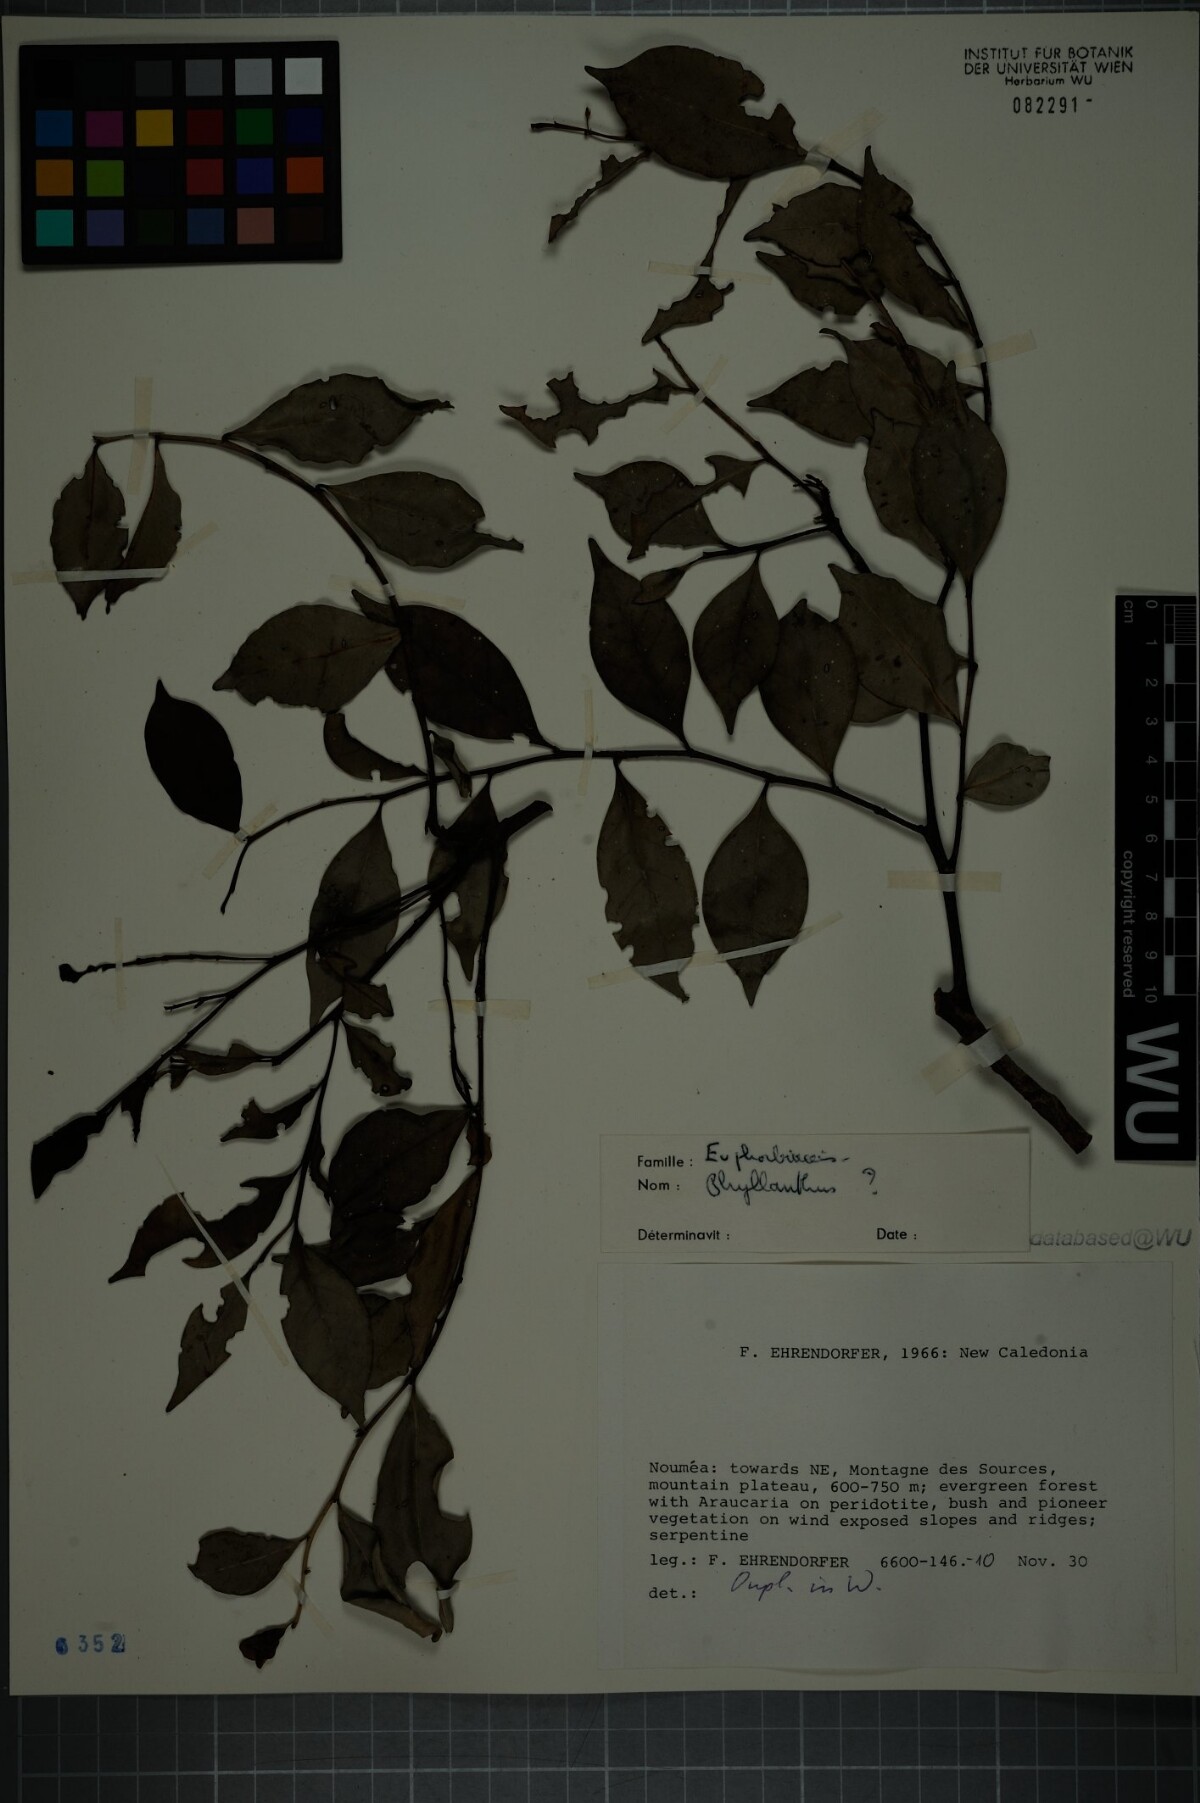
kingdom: Plantae
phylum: Tracheophyta
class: Magnoliopsida
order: Malpighiales
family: Phyllanthaceae
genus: Phyllanthus
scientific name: Phyllanthus
